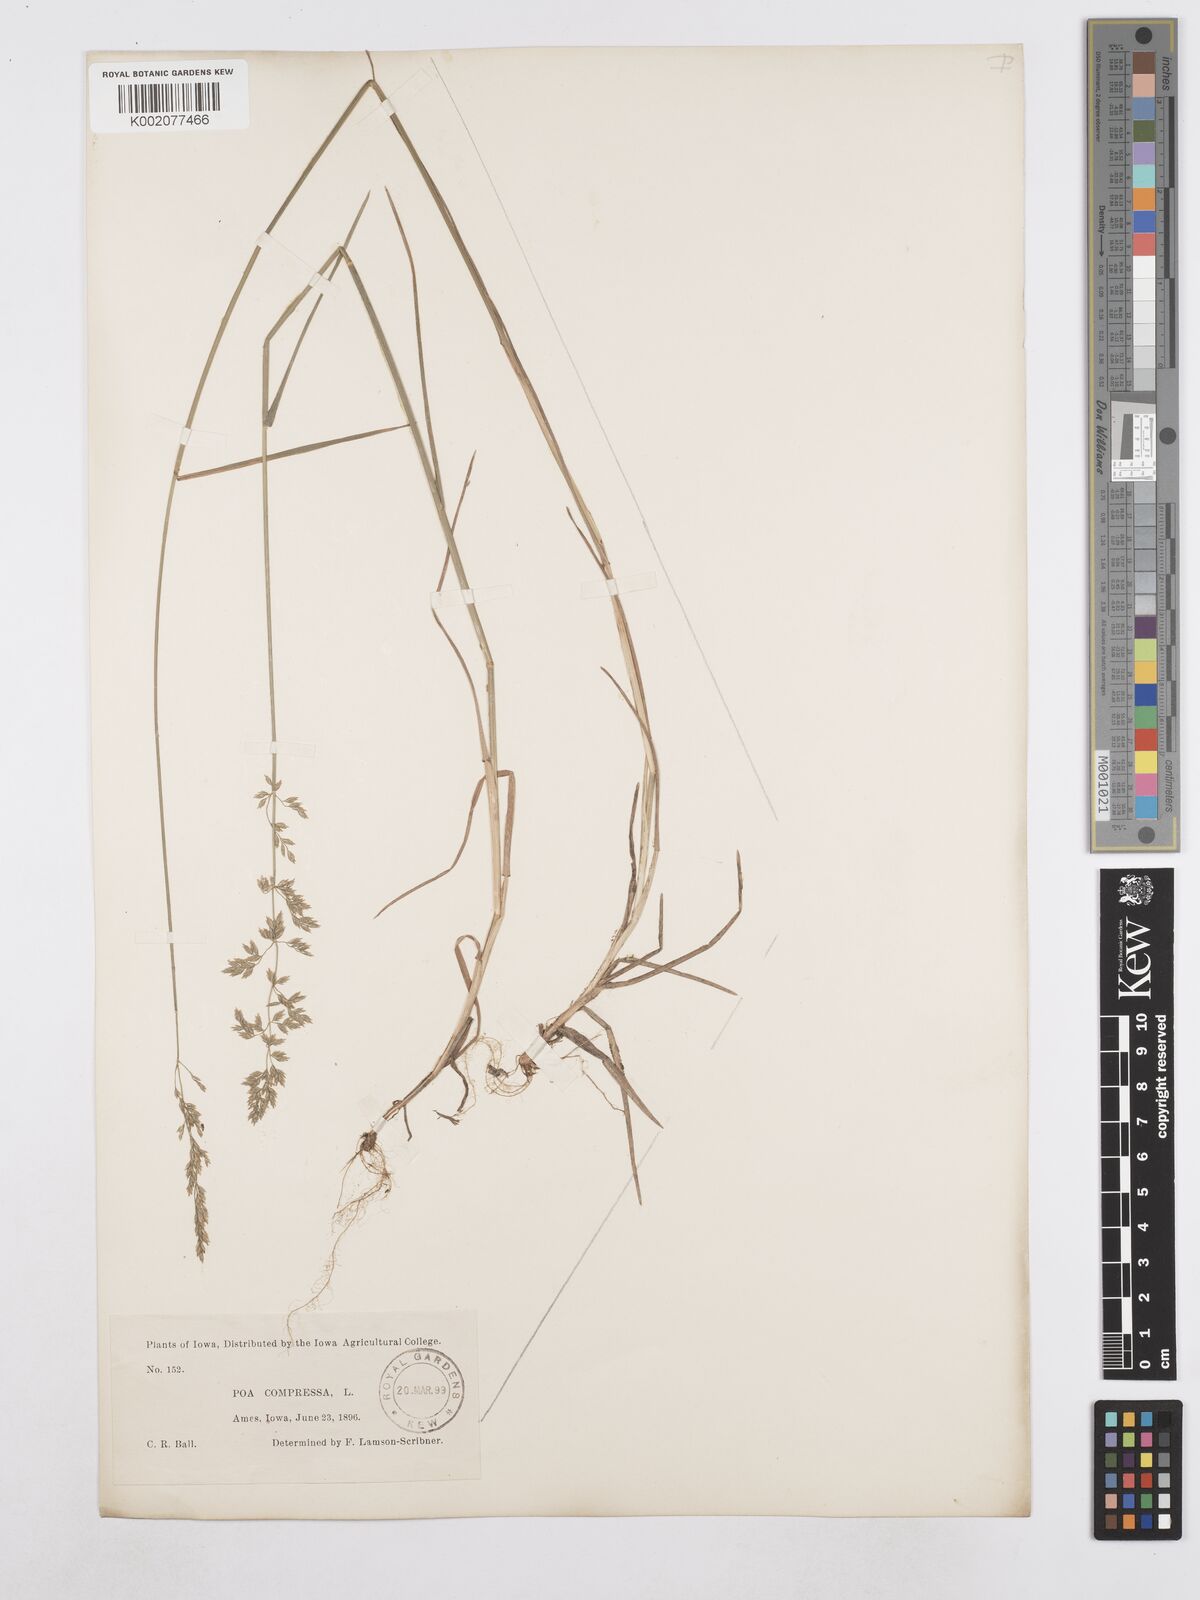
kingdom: Plantae
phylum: Tracheophyta
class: Liliopsida
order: Poales
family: Poaceae
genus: Poa
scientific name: Poa compressa
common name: Canada bluegrass
